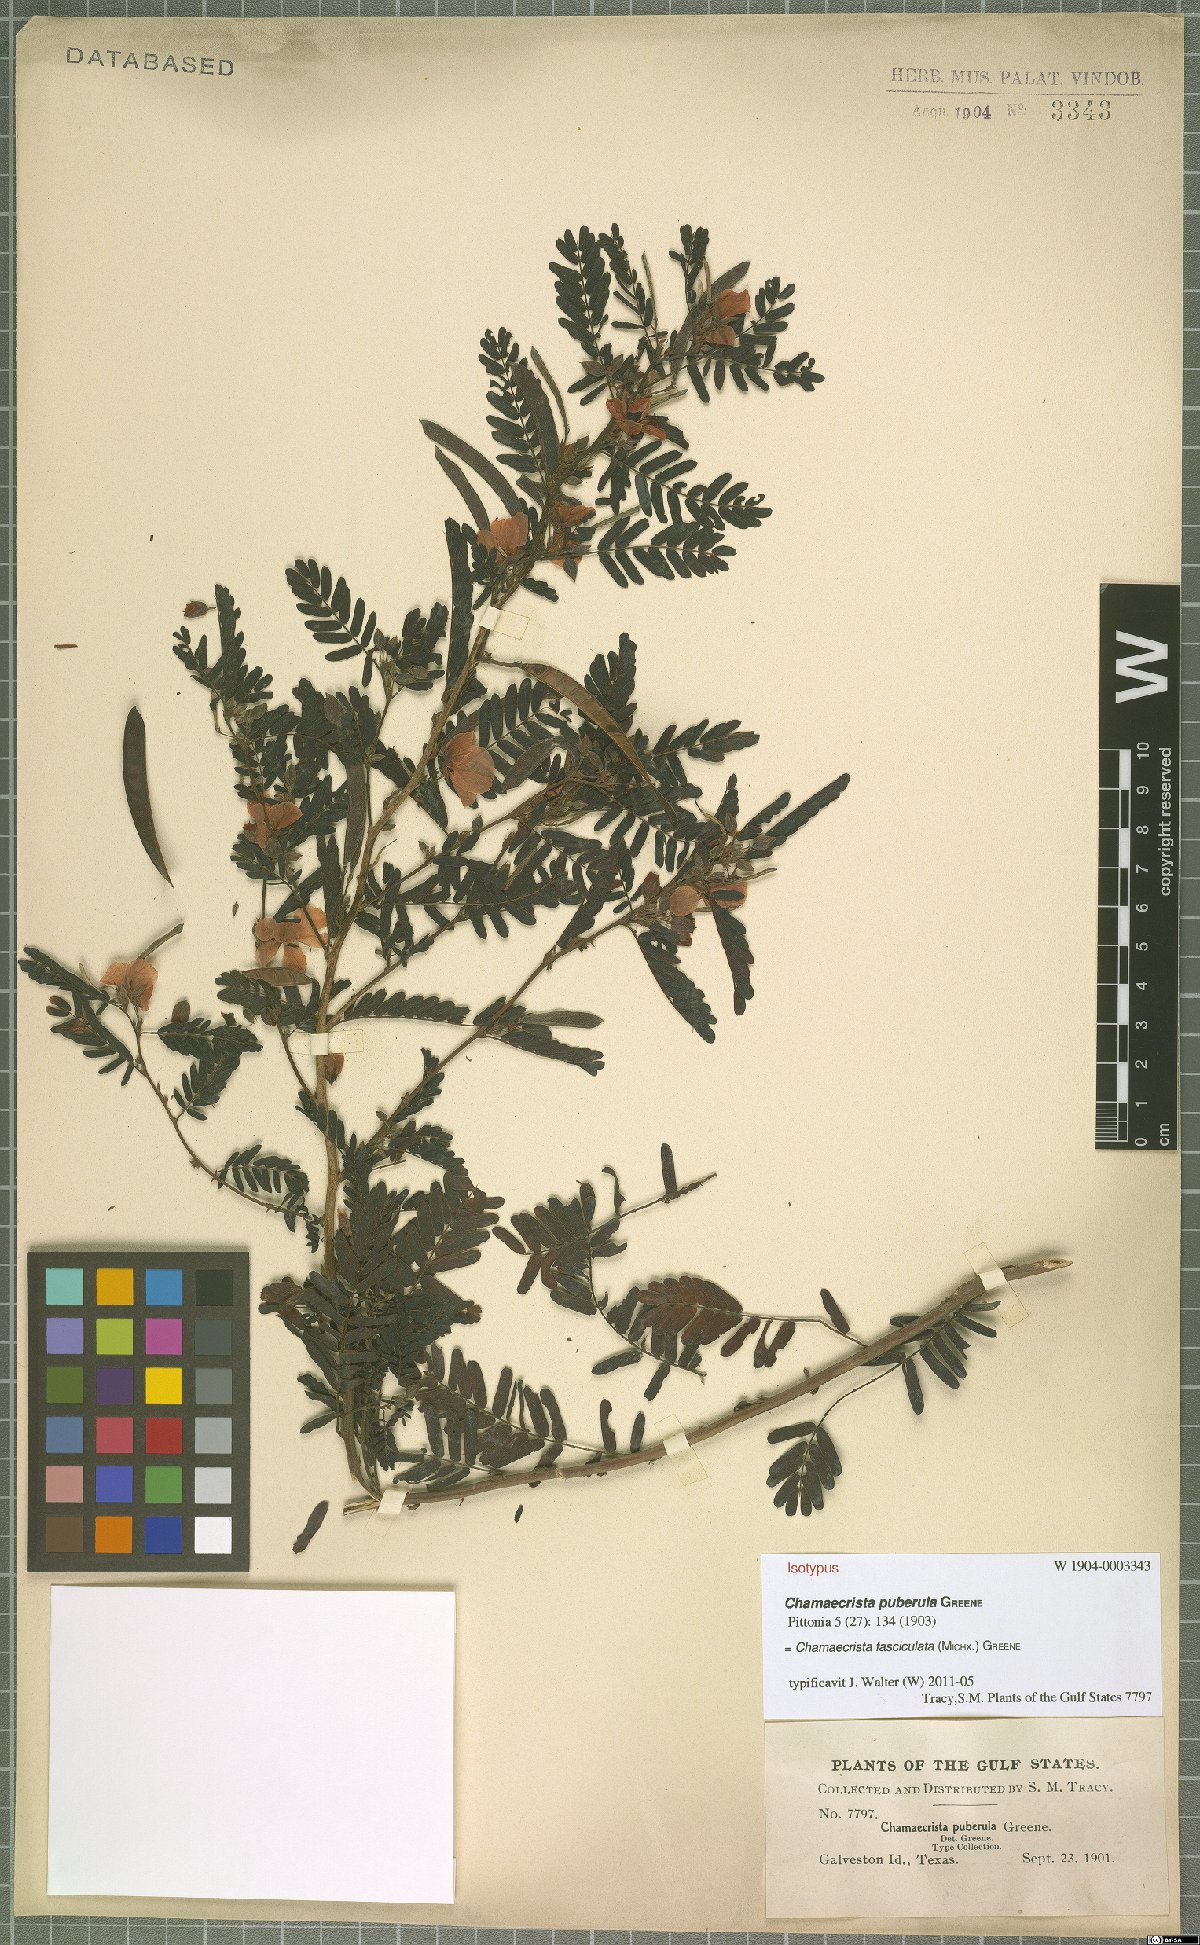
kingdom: Plantae
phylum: Tracheophyta
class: Magnoliopsida
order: Fabales
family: Fabaceae
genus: Chamaecrista
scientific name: Chamaecrista fasciculata
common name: Golden cassia
